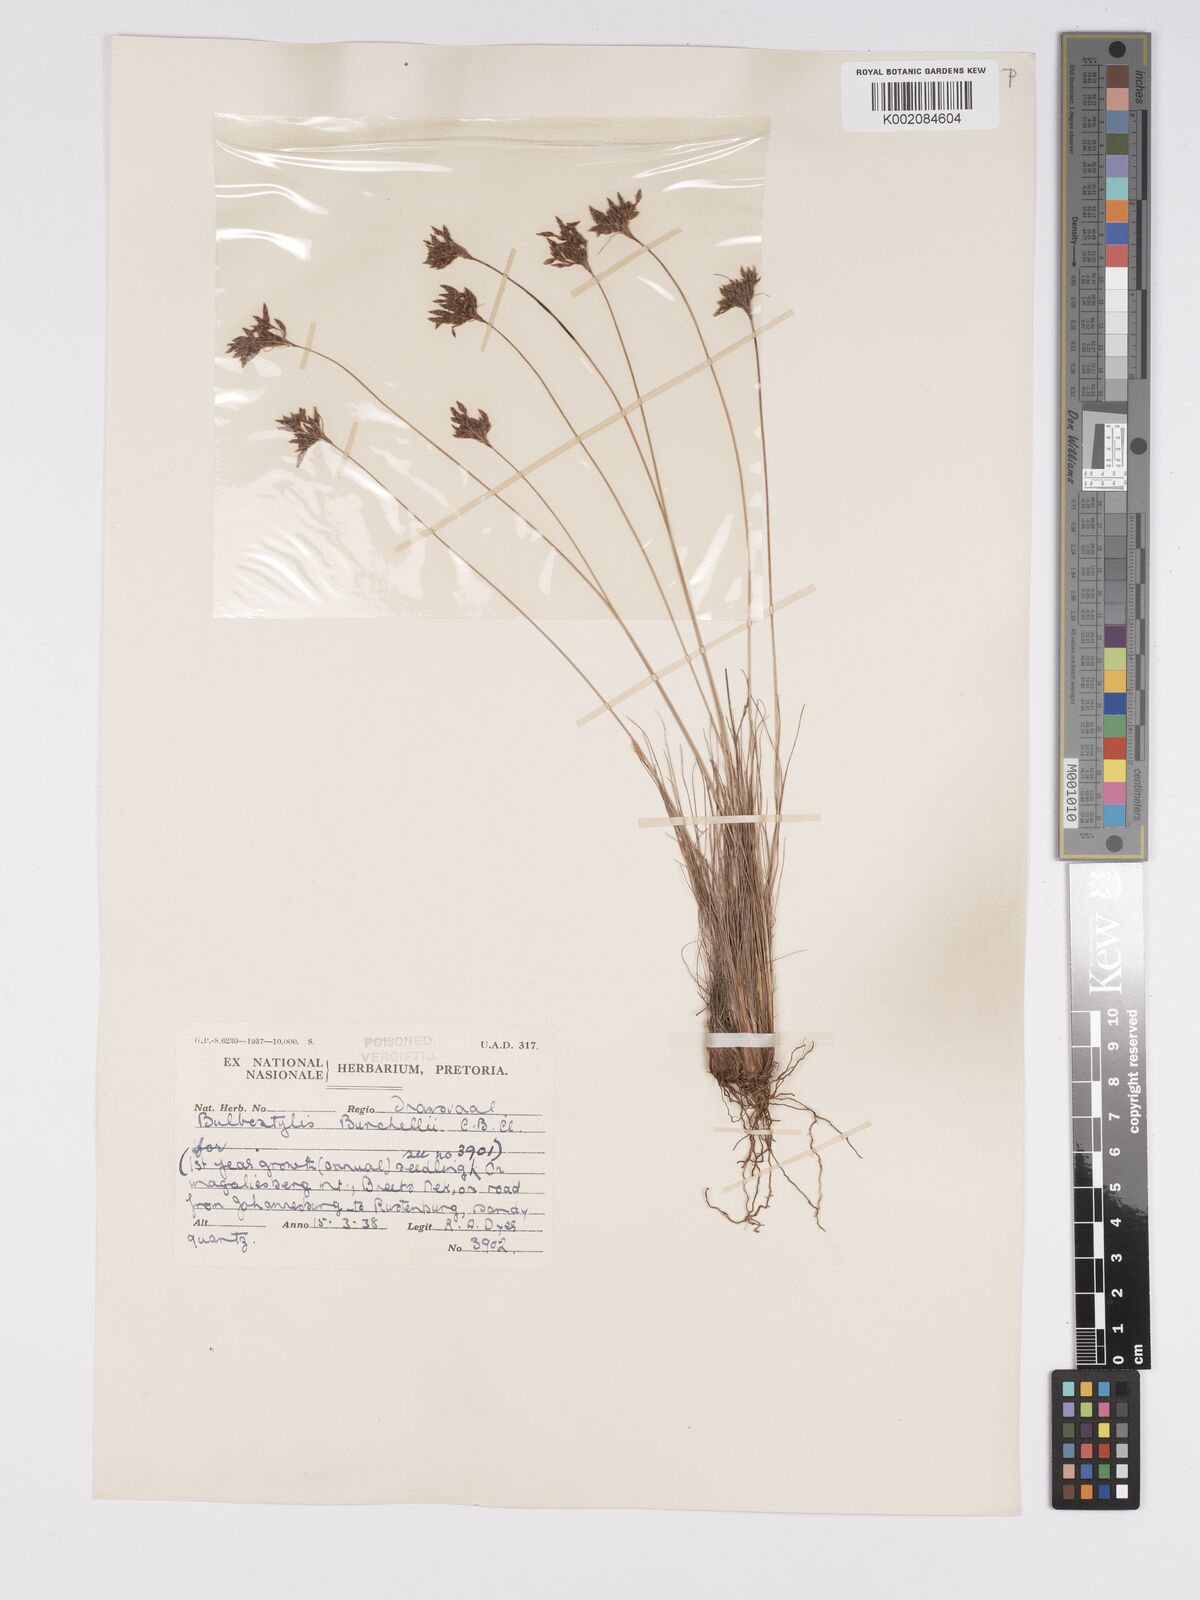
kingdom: Plantae
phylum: Tracheophyta
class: Liliopsida
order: Poales
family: Cyperaceae
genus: Bulbostylis
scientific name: Bulbostylis burchellii
